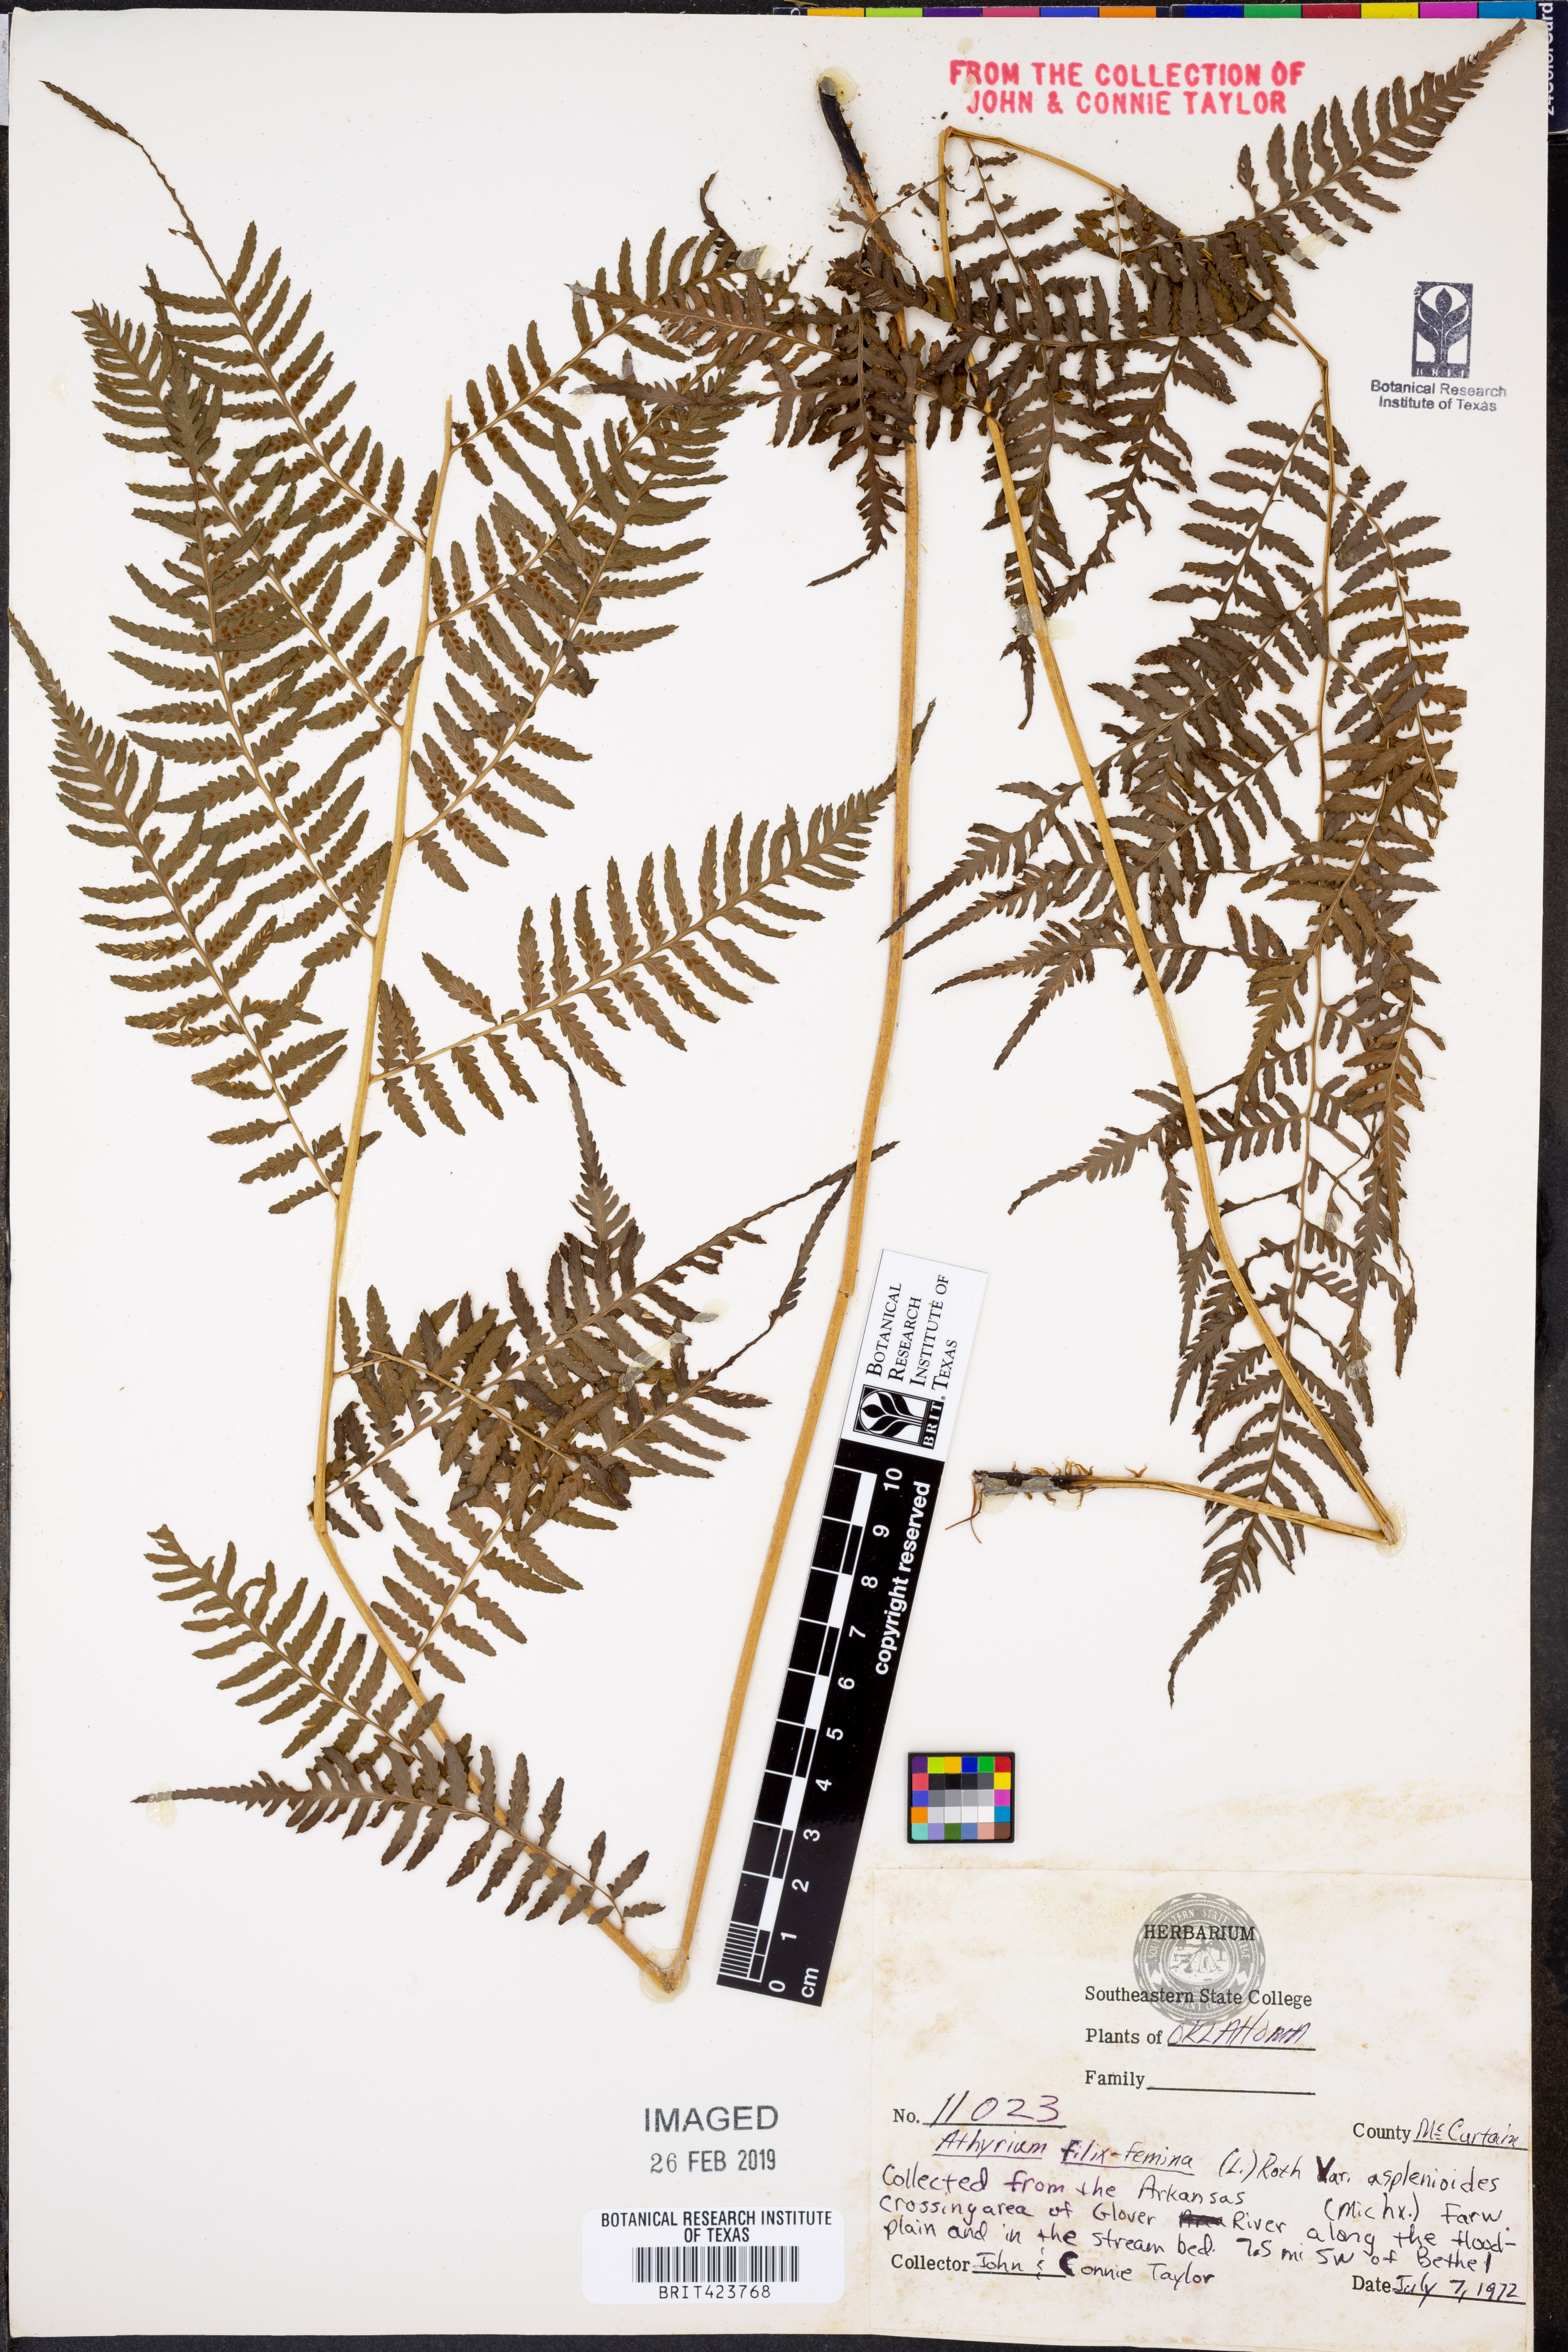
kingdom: Plantae
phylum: Tracheophyta
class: Polypodiopsida
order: Polypodiales
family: Athyriaceae
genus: Athyrium
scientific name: Athyrium filix-femina
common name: Lady fern
